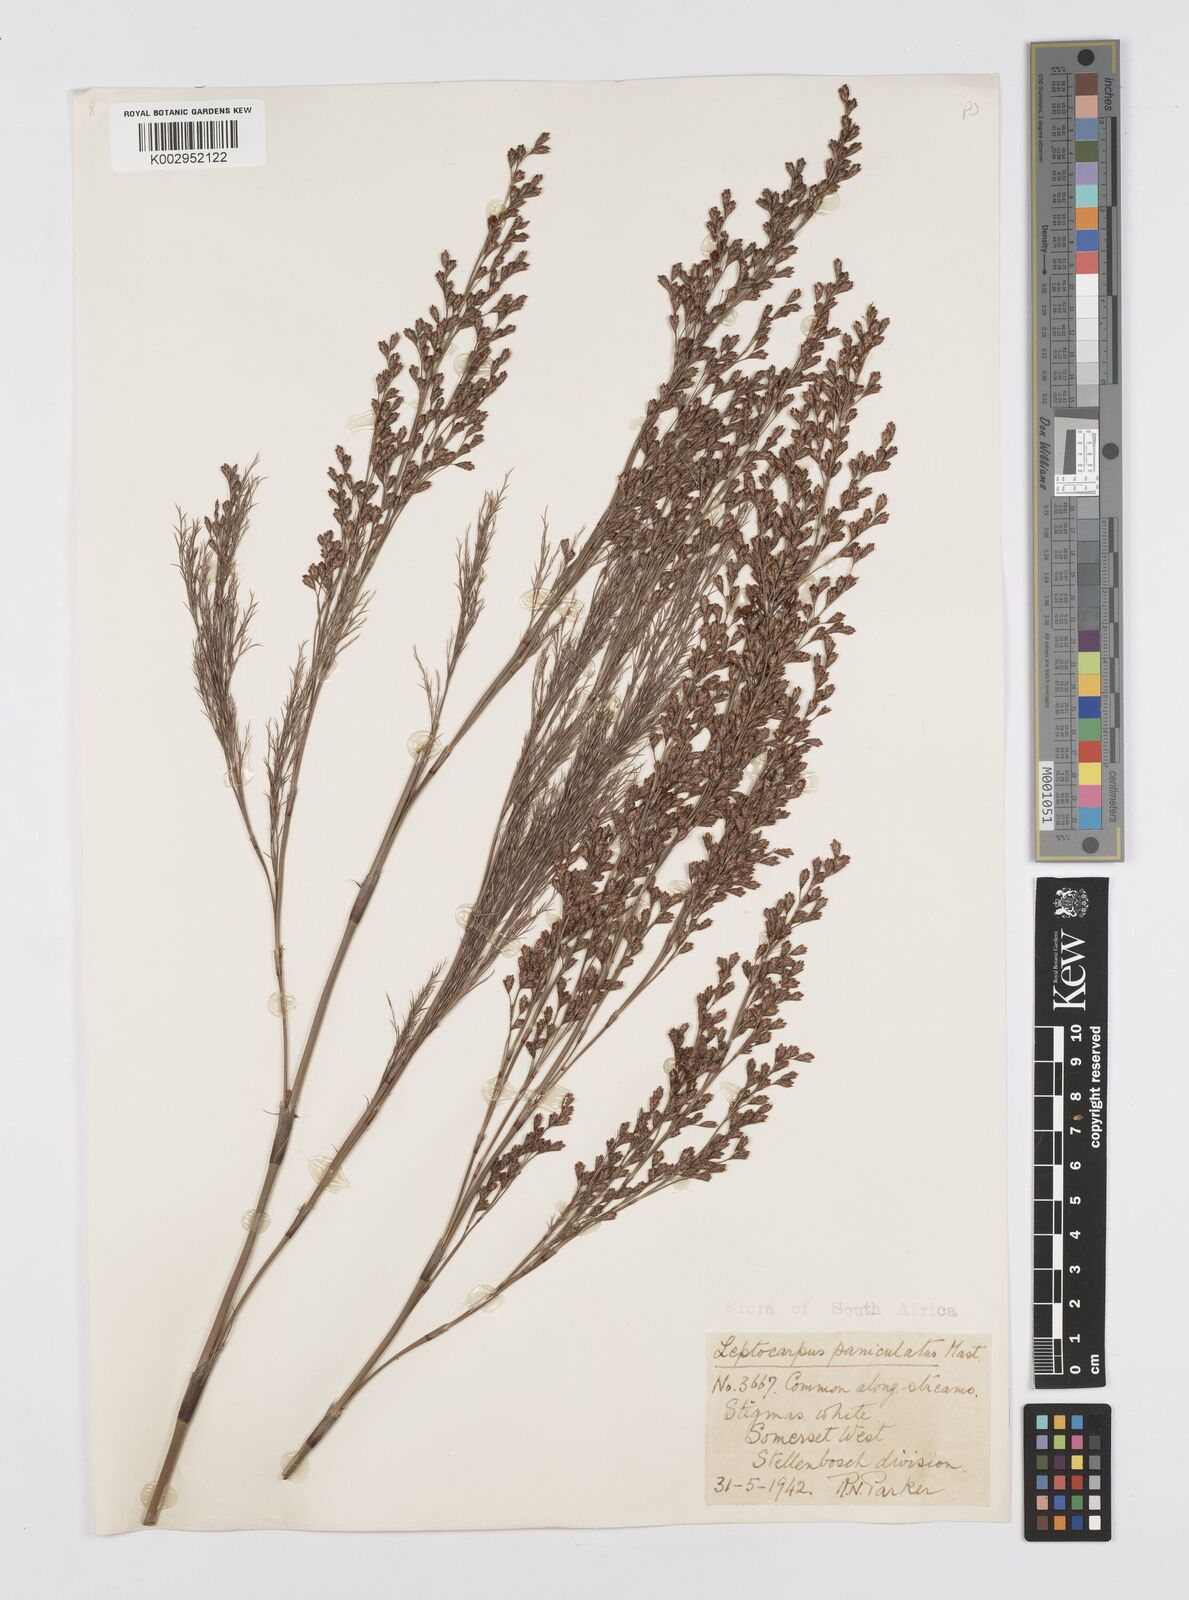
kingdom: Plantae
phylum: Tracheophyta
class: Liliopsida
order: Poales
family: Restionaceae
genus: Restio
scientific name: Restio
